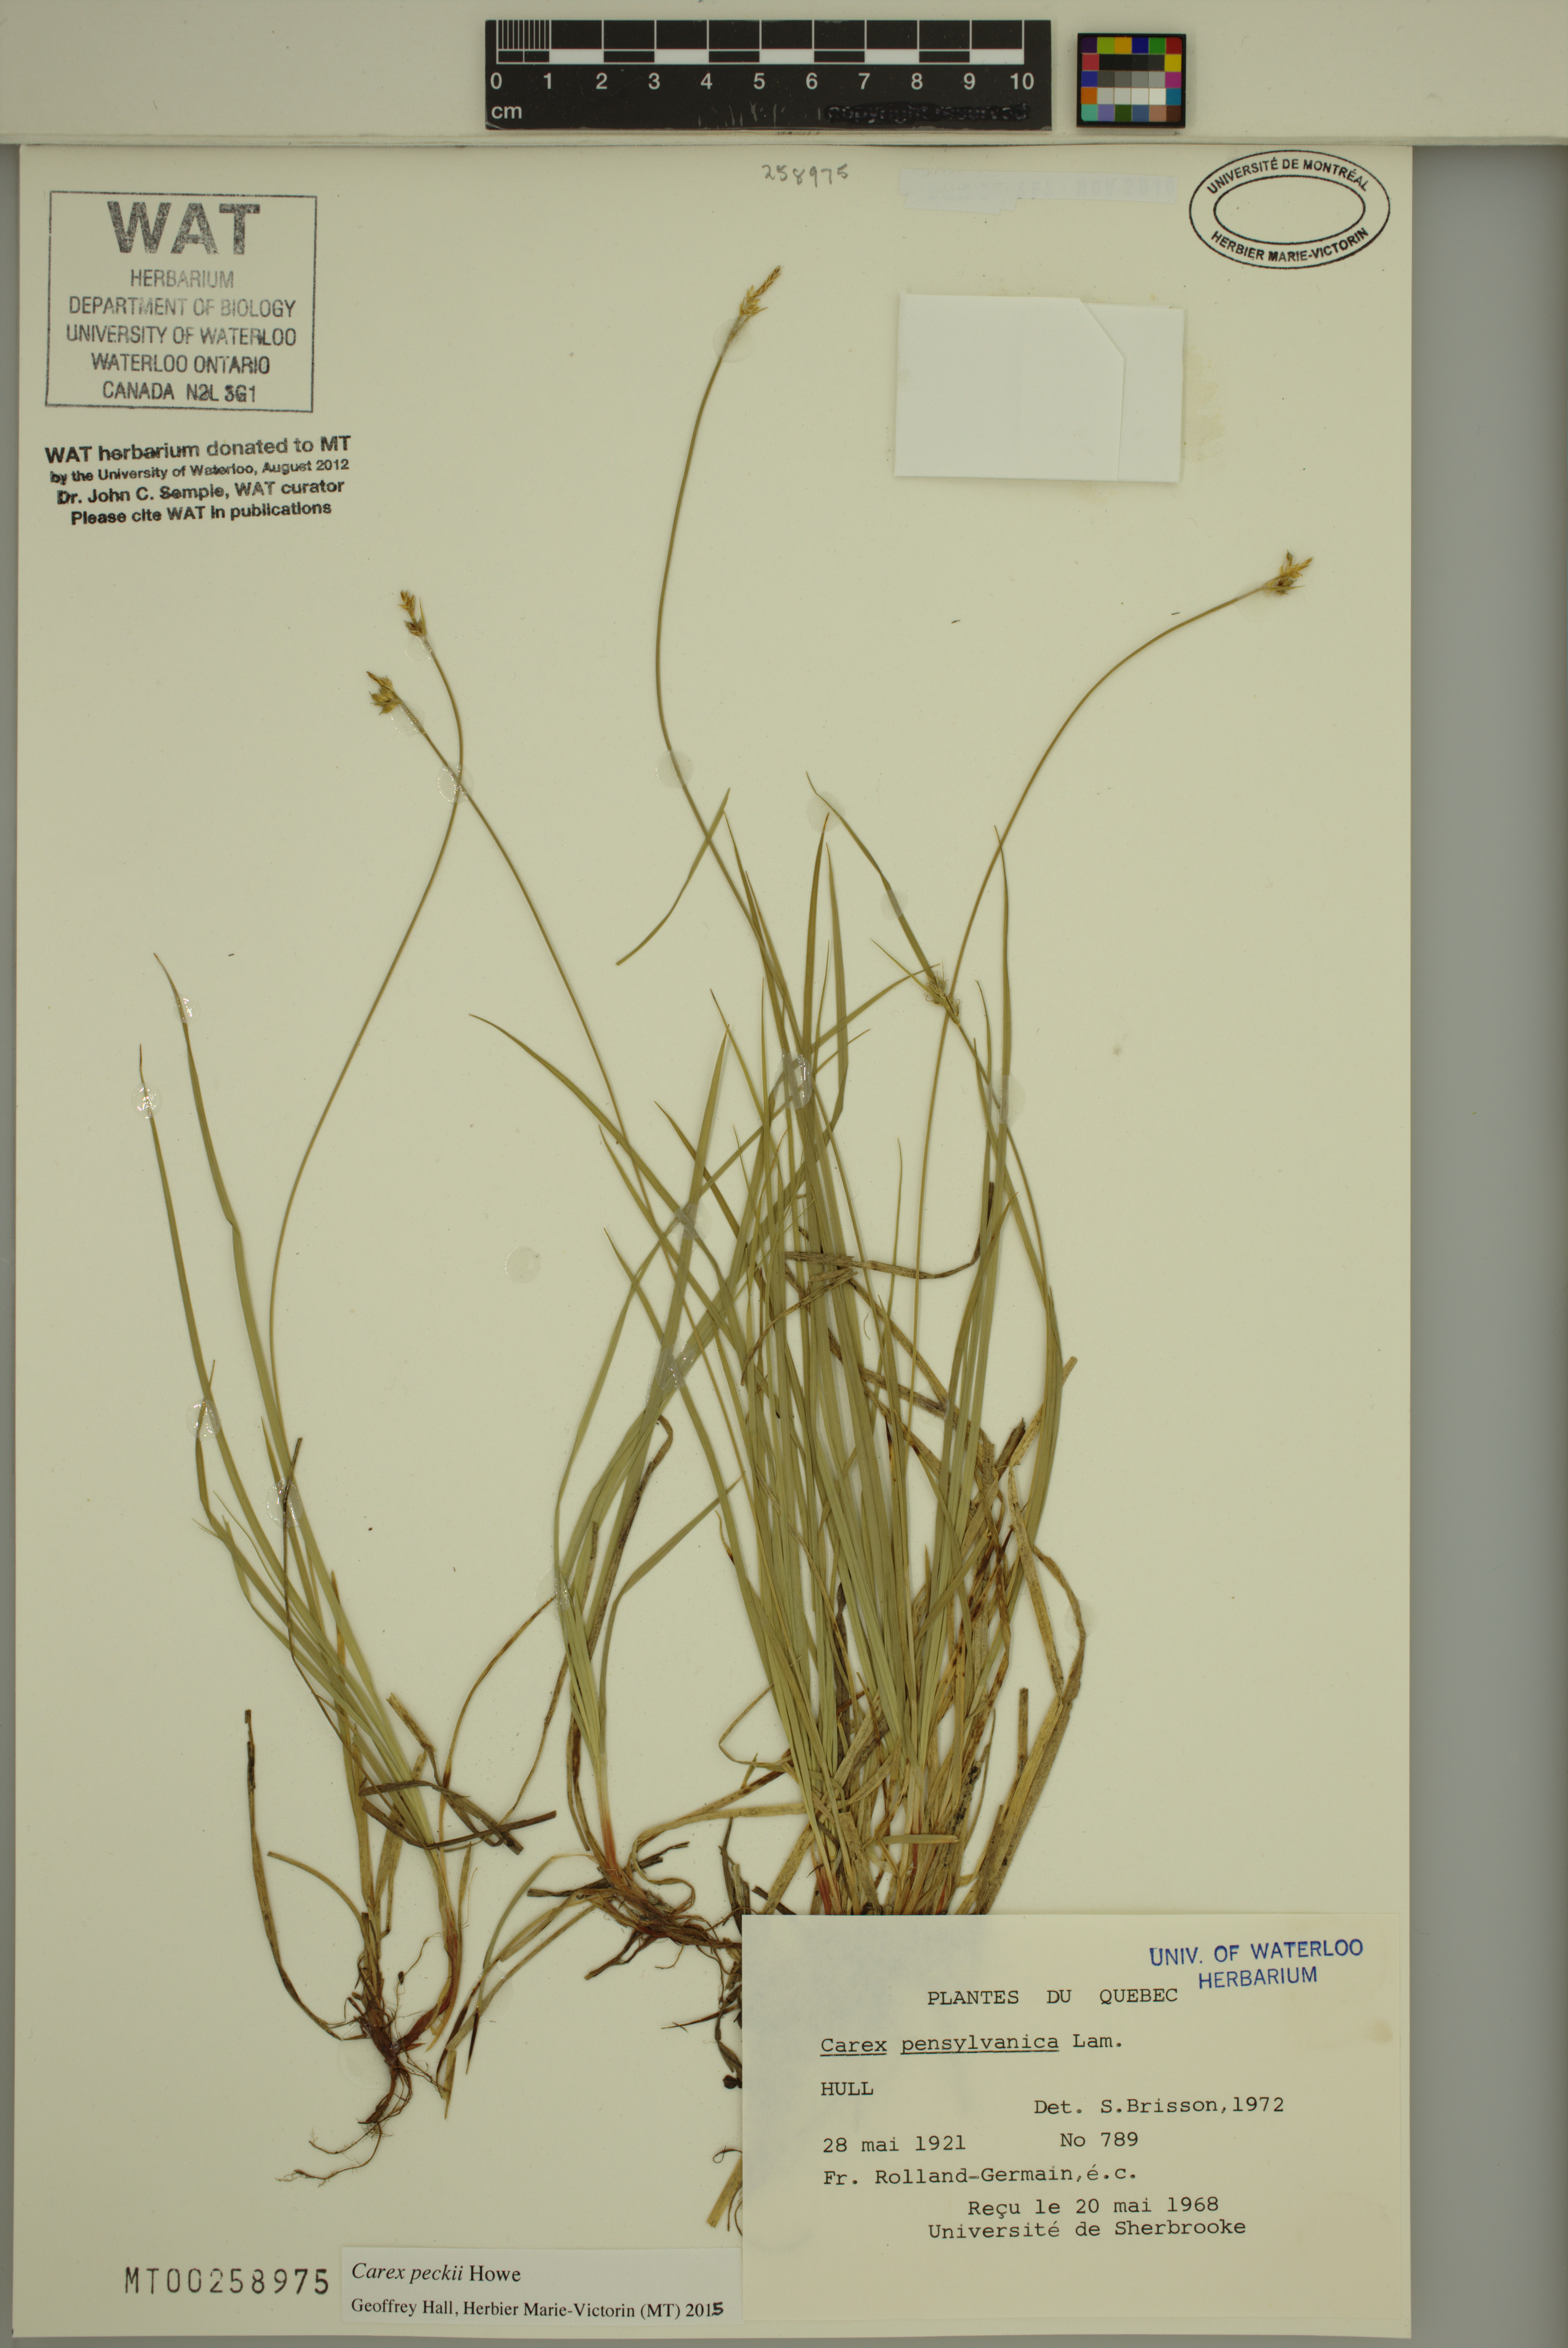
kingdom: Plantae
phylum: Tracheophyta
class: Liliopsida
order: Poales
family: Cyperaceae
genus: Carex
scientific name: Carex peckii
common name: Peck's oak sedge
